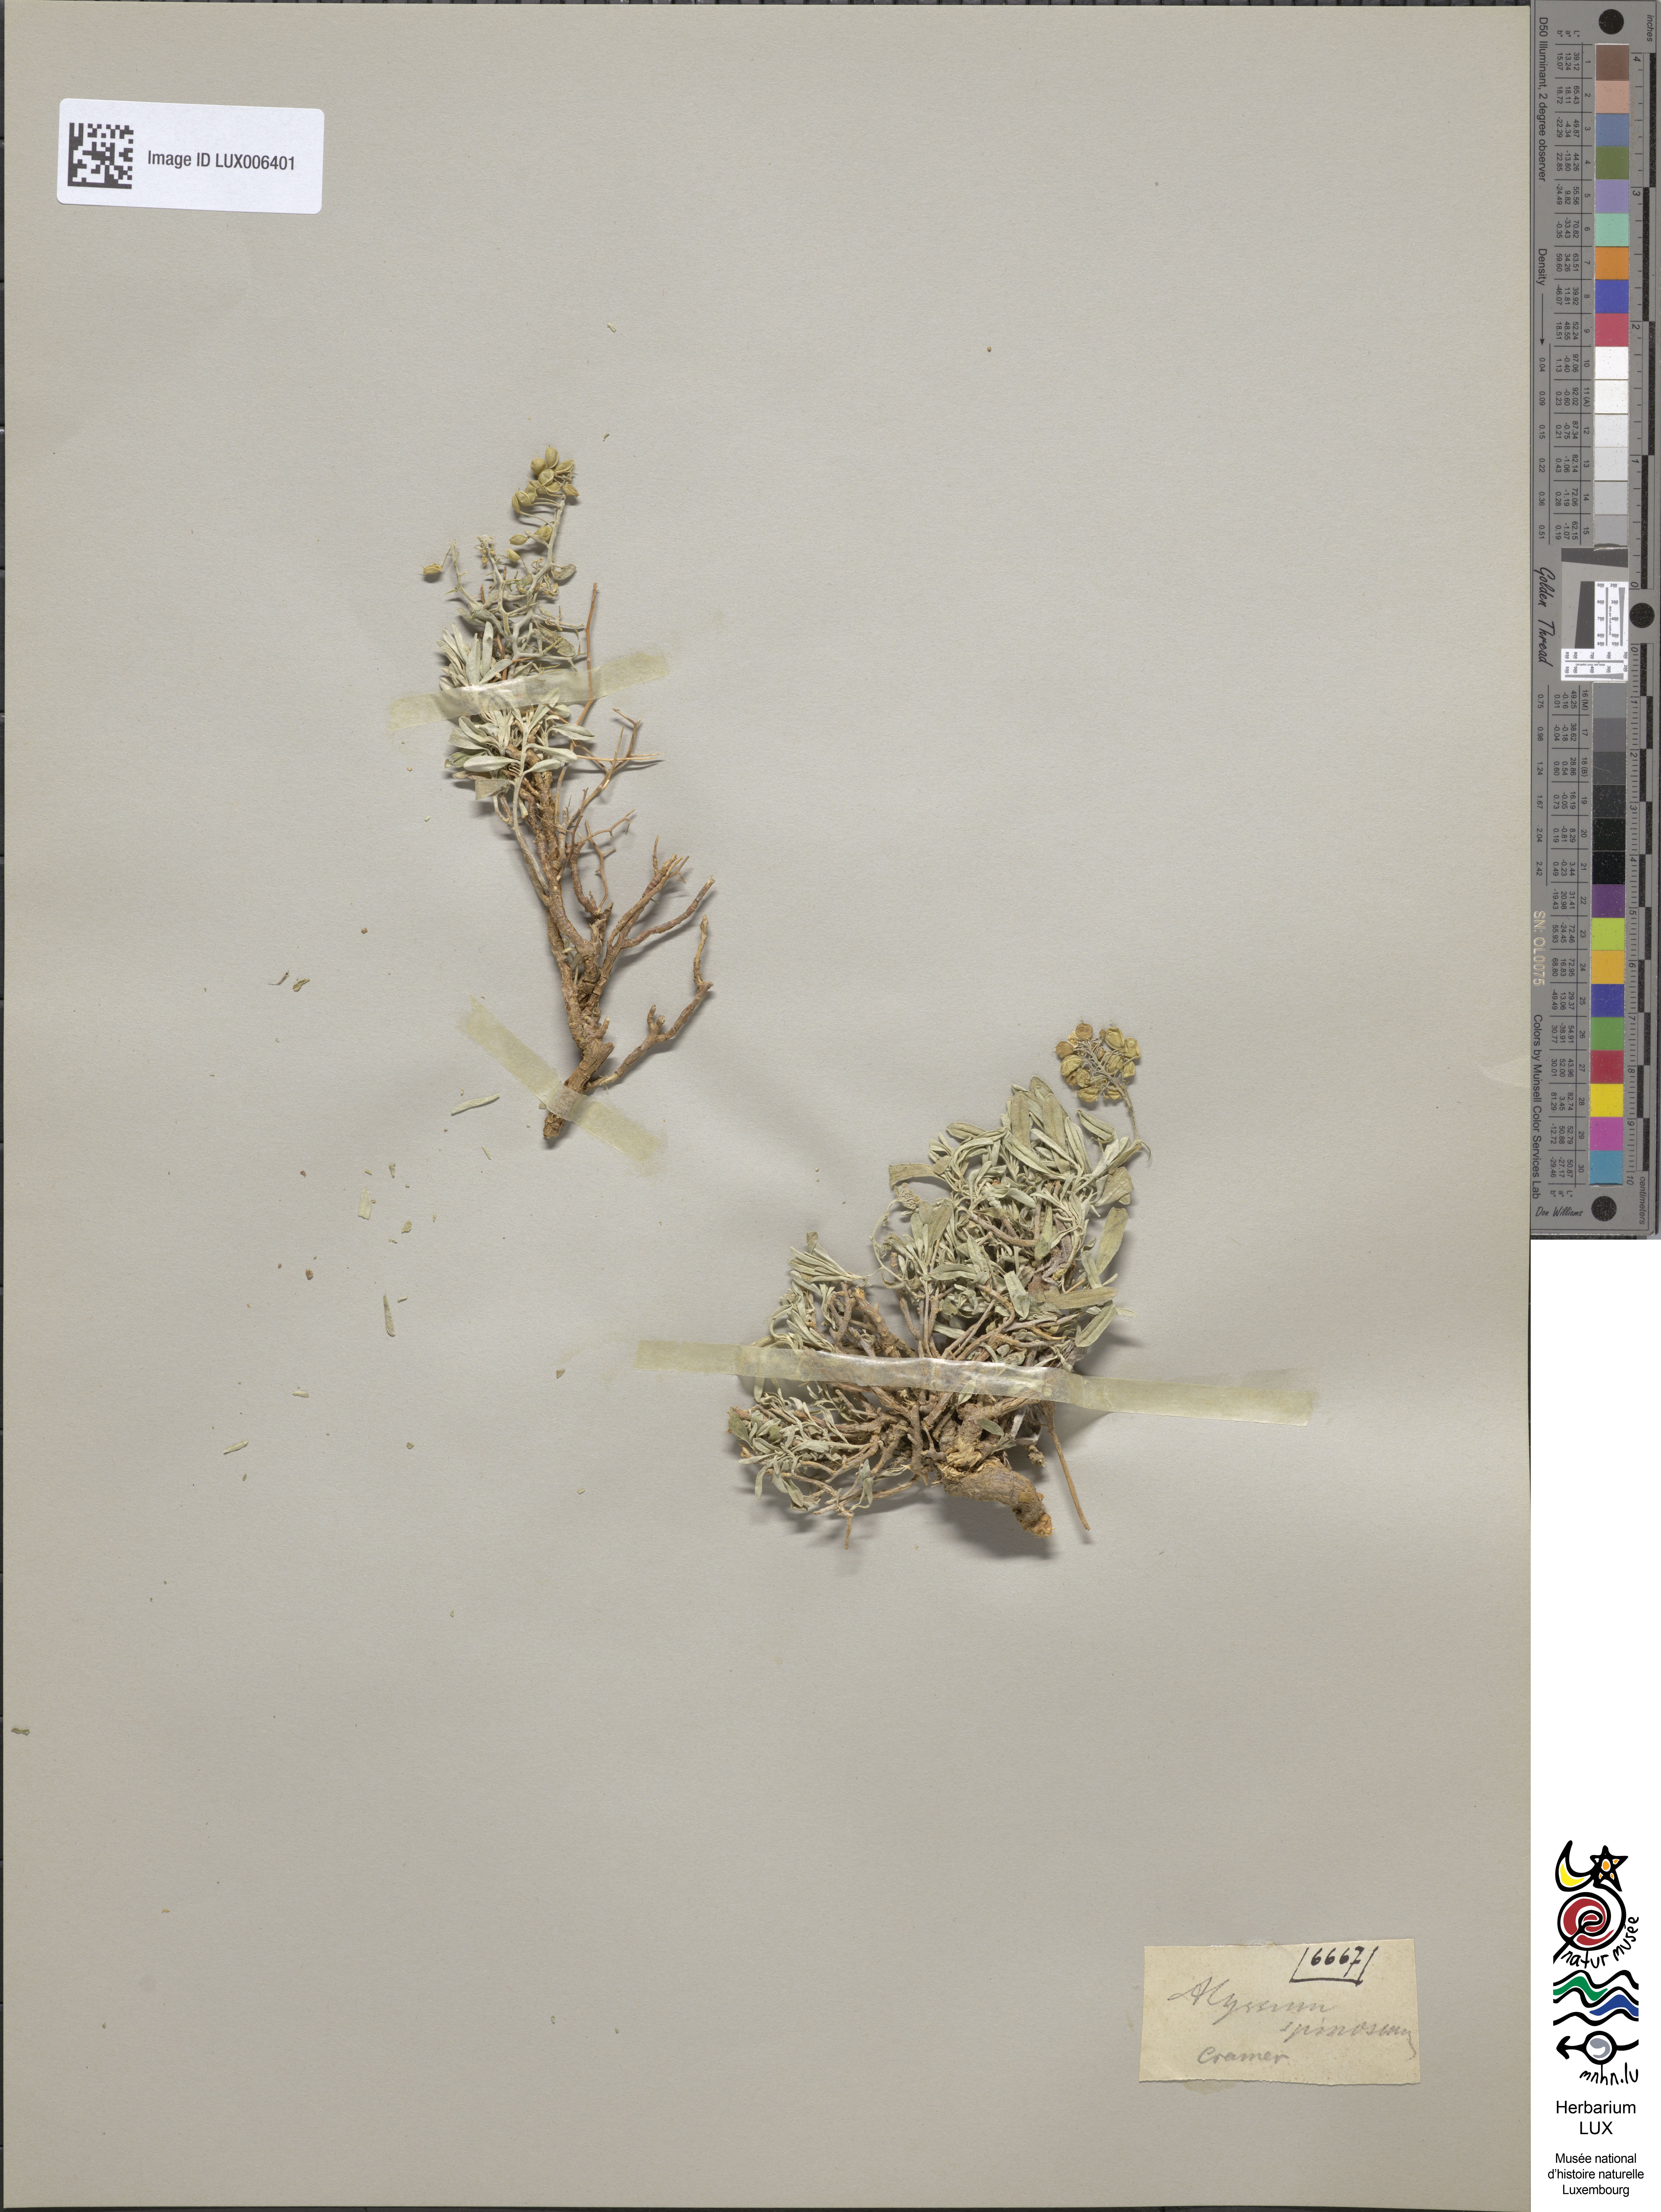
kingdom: Plantae
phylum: Tracheophyta
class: Magnoliopsida
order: Brassicales
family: Brassicaceae
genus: Hormathophylla
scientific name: Hormathophylla spinosa
